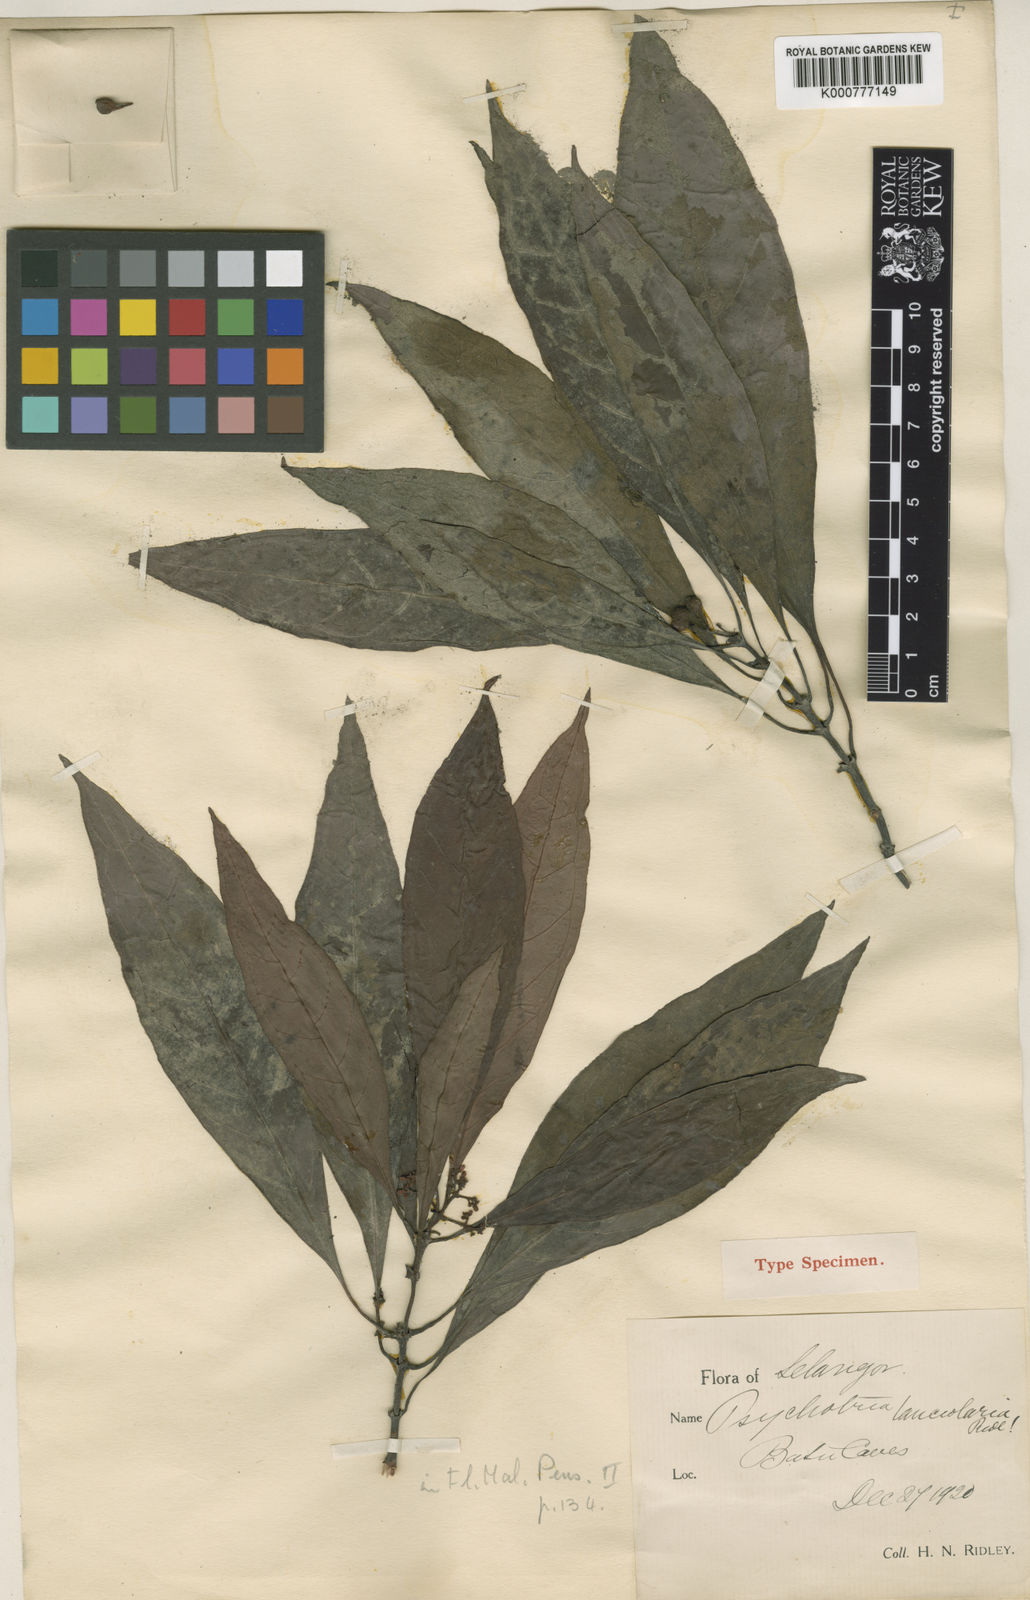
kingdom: Plantae
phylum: Tracheophyta
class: Magnoliopsida
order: Gentianales
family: Rubiaceae
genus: Psychotria
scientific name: Psychotria lanceolaria
